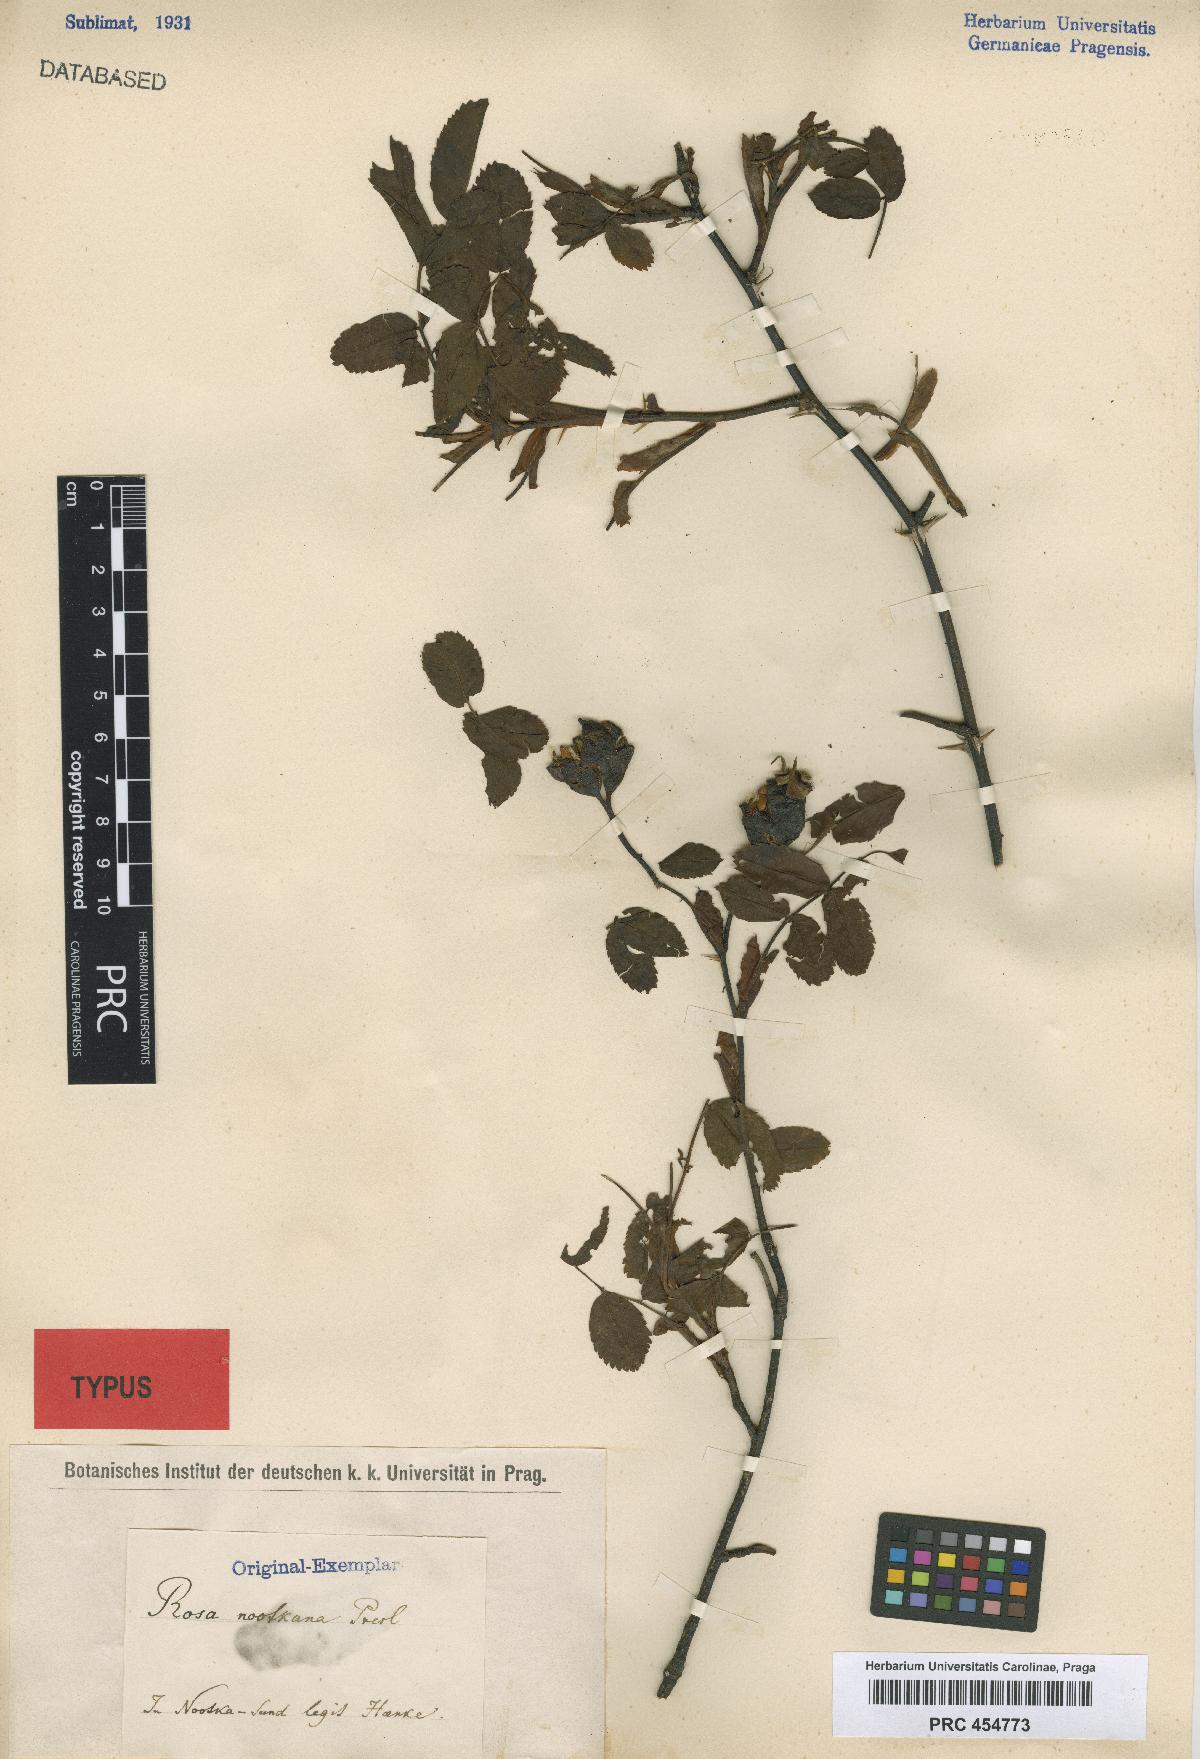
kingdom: Plantae
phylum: Tracheophyta
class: Magnoliopsida
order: Rosales
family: Rosaceae
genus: Rosa
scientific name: Rosa nutkana
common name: Nootka rose
